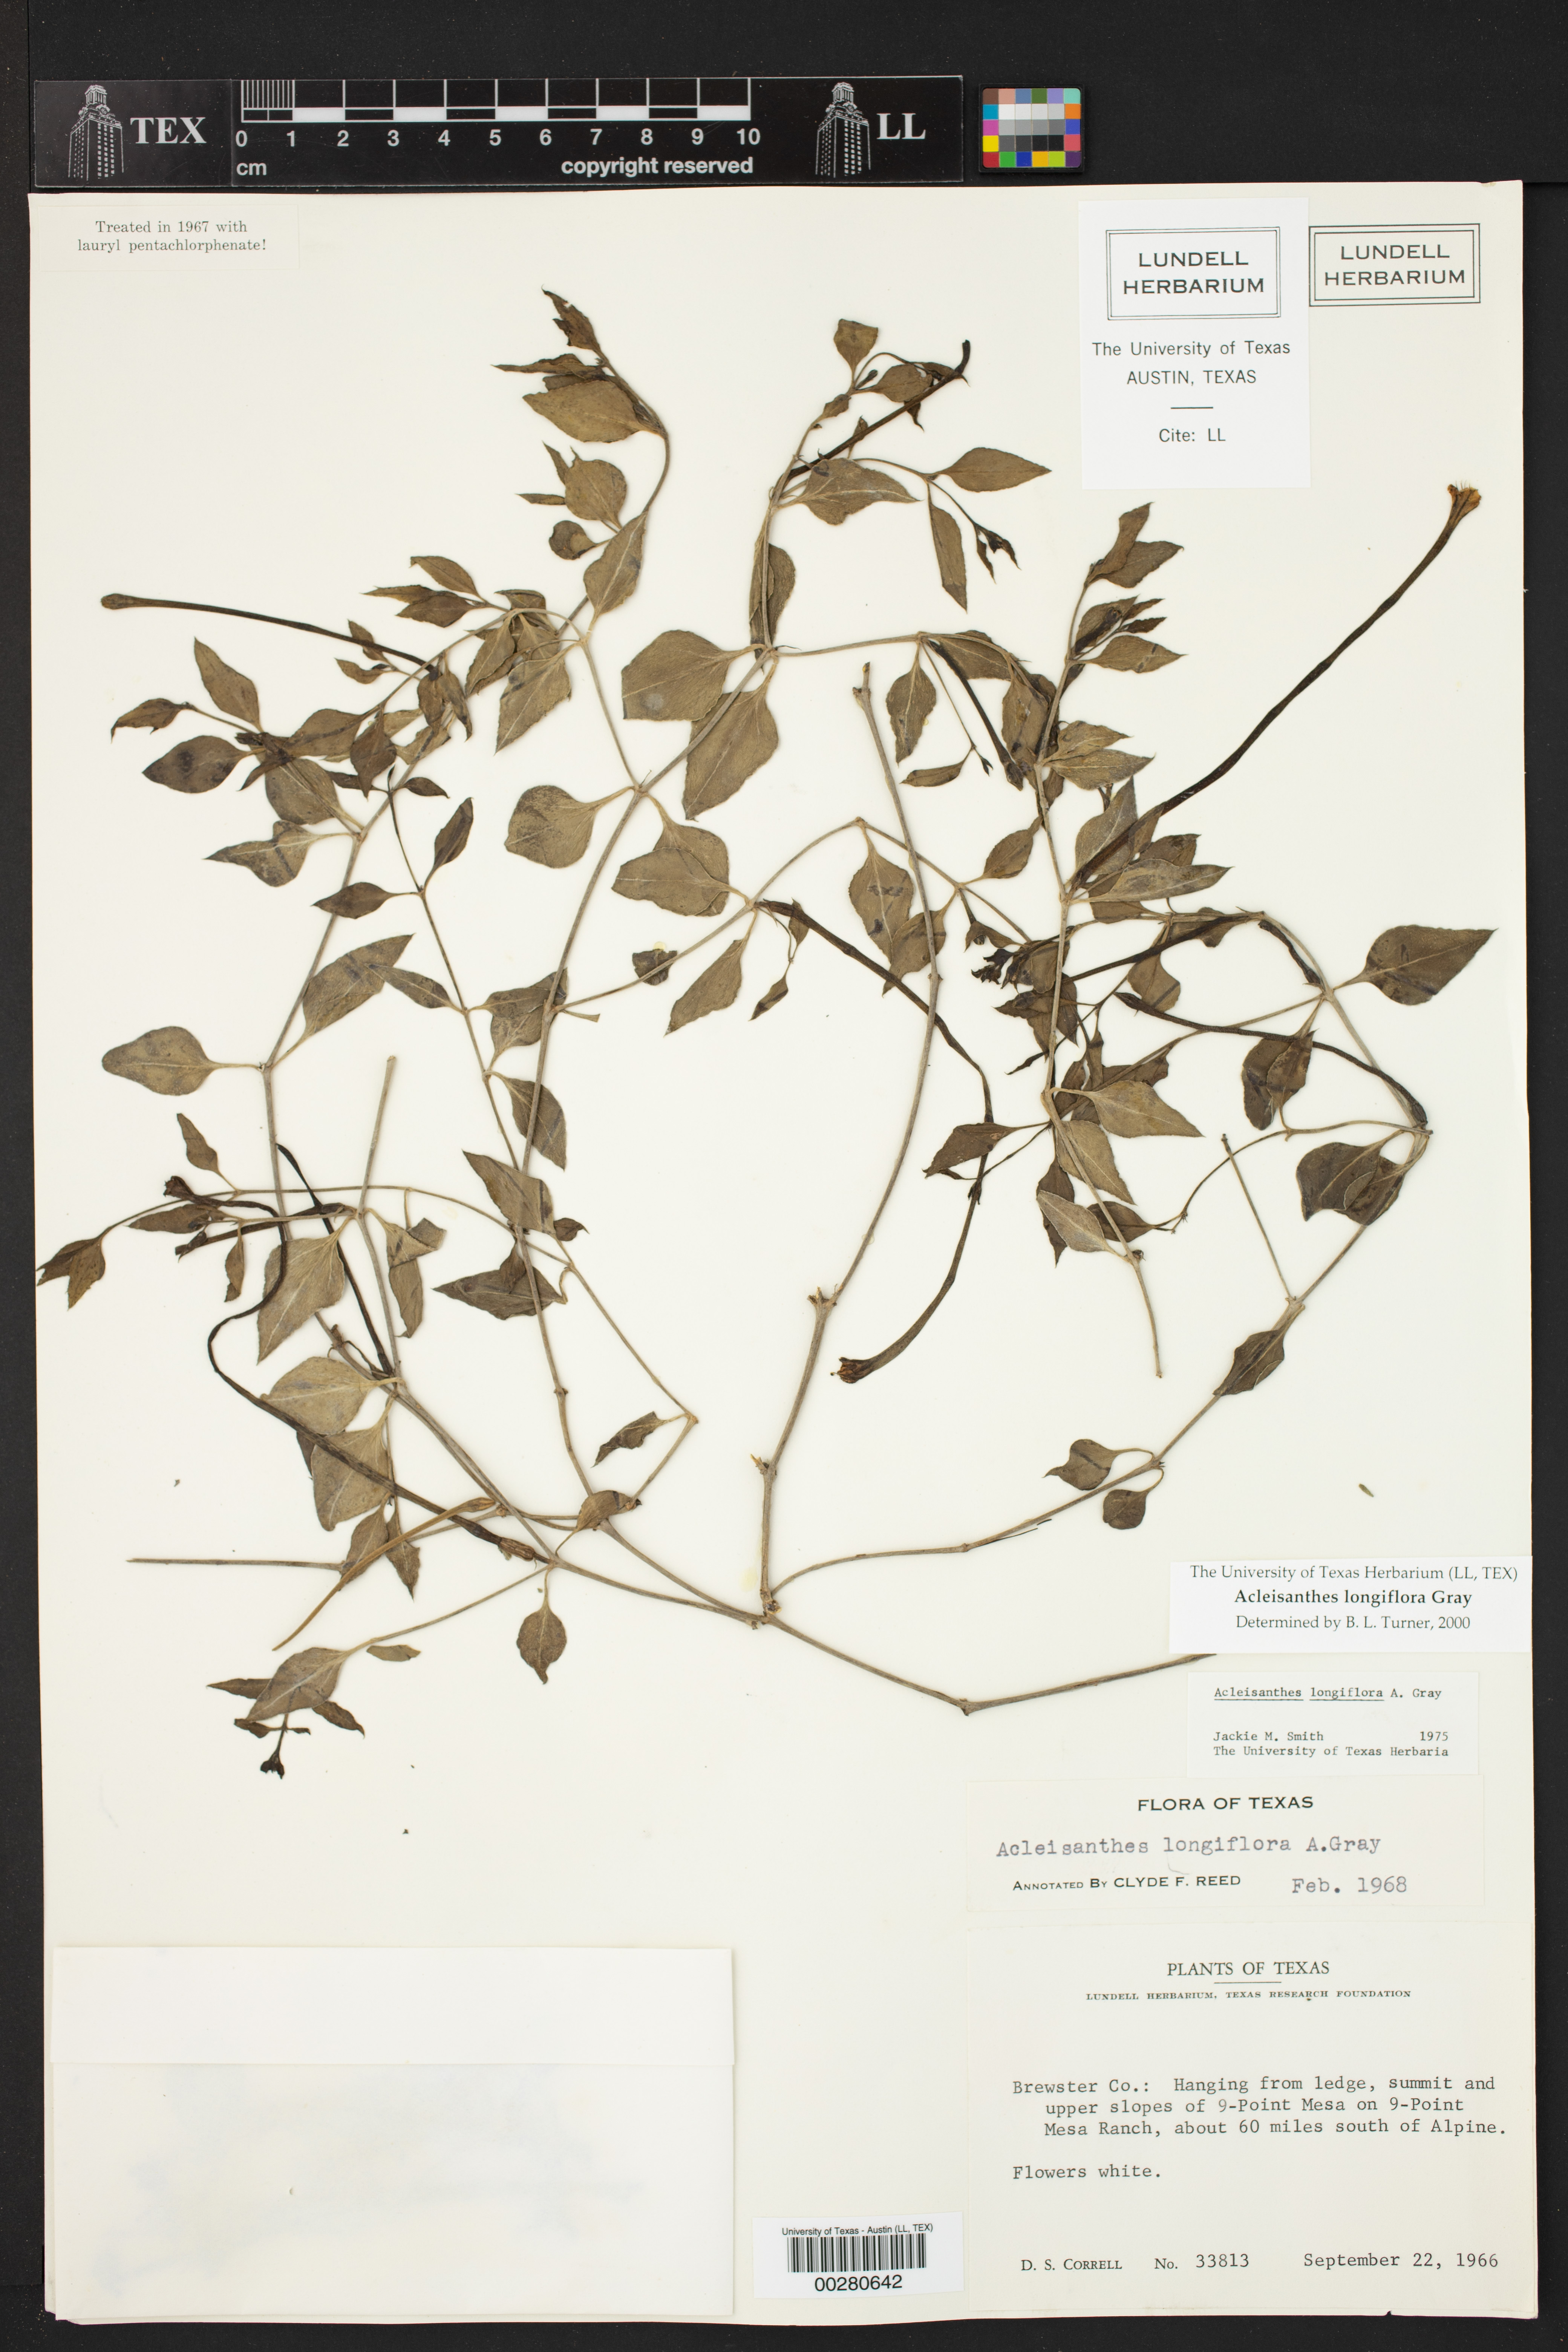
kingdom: Plantae
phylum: Tracheophyta
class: Magnoliopsida
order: Caryophyllales
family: Nyctaginaceae
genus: Acleisanthes
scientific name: Acleisanthes longiflora
